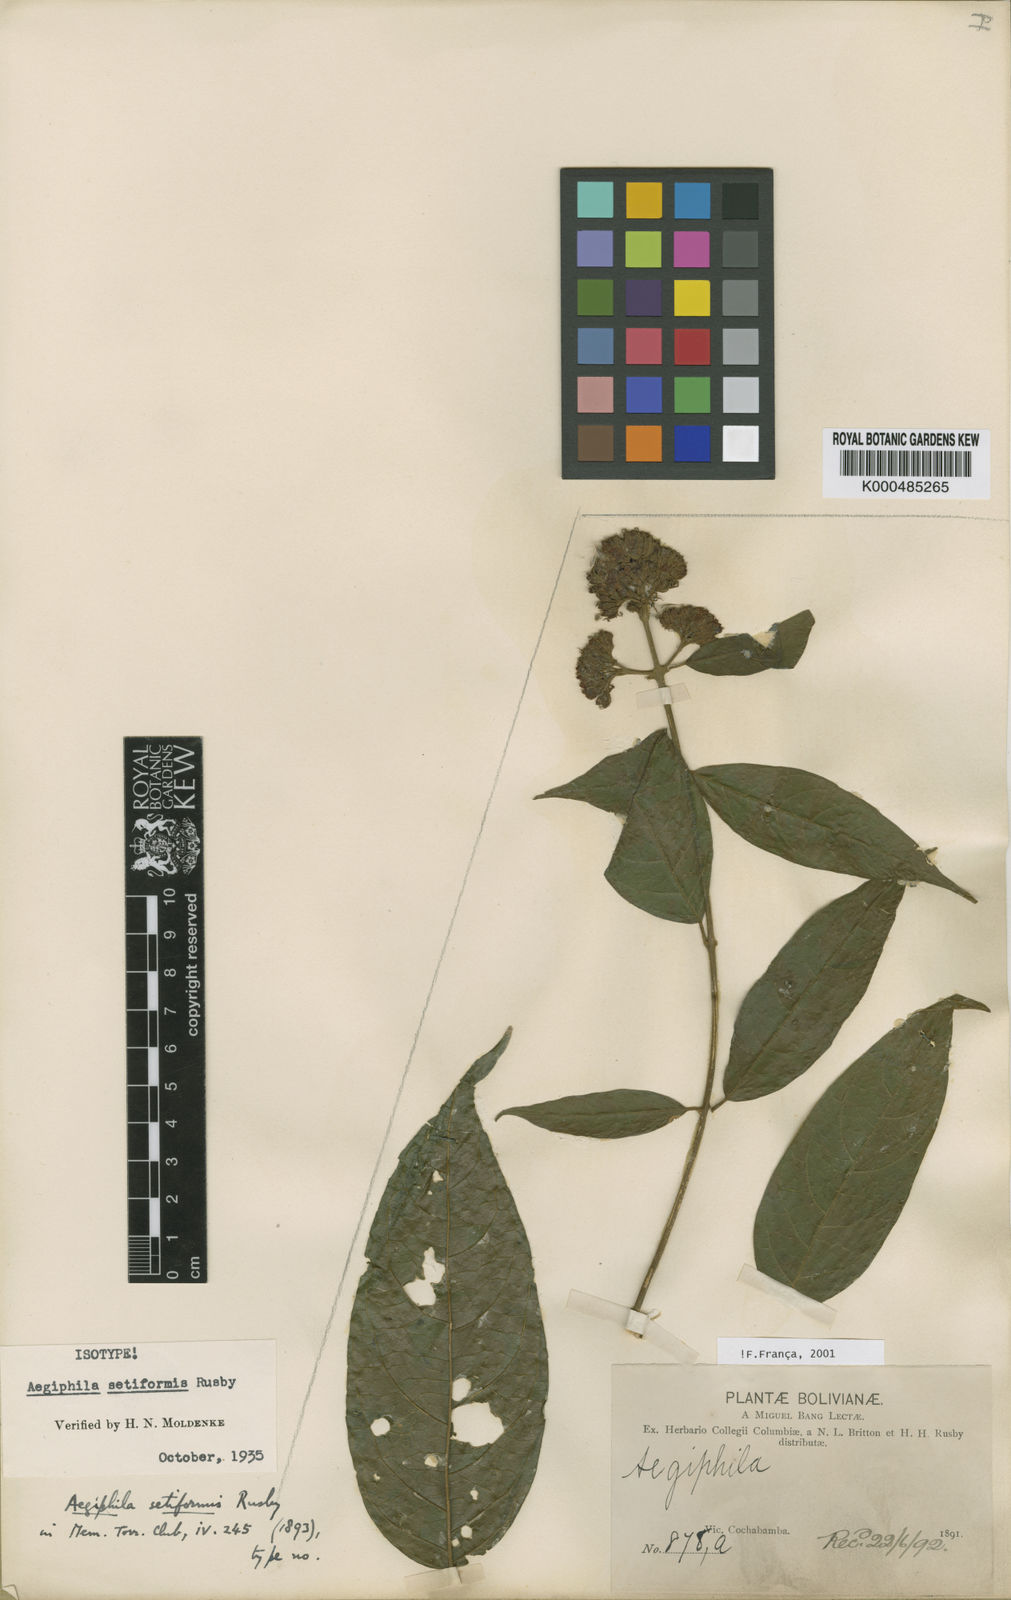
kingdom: Plantae
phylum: Tracheophyta
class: Magnoliopsida
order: Lamiales
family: Lamiaceae
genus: Aegiphila
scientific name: Aegiphila vitelliniflora
